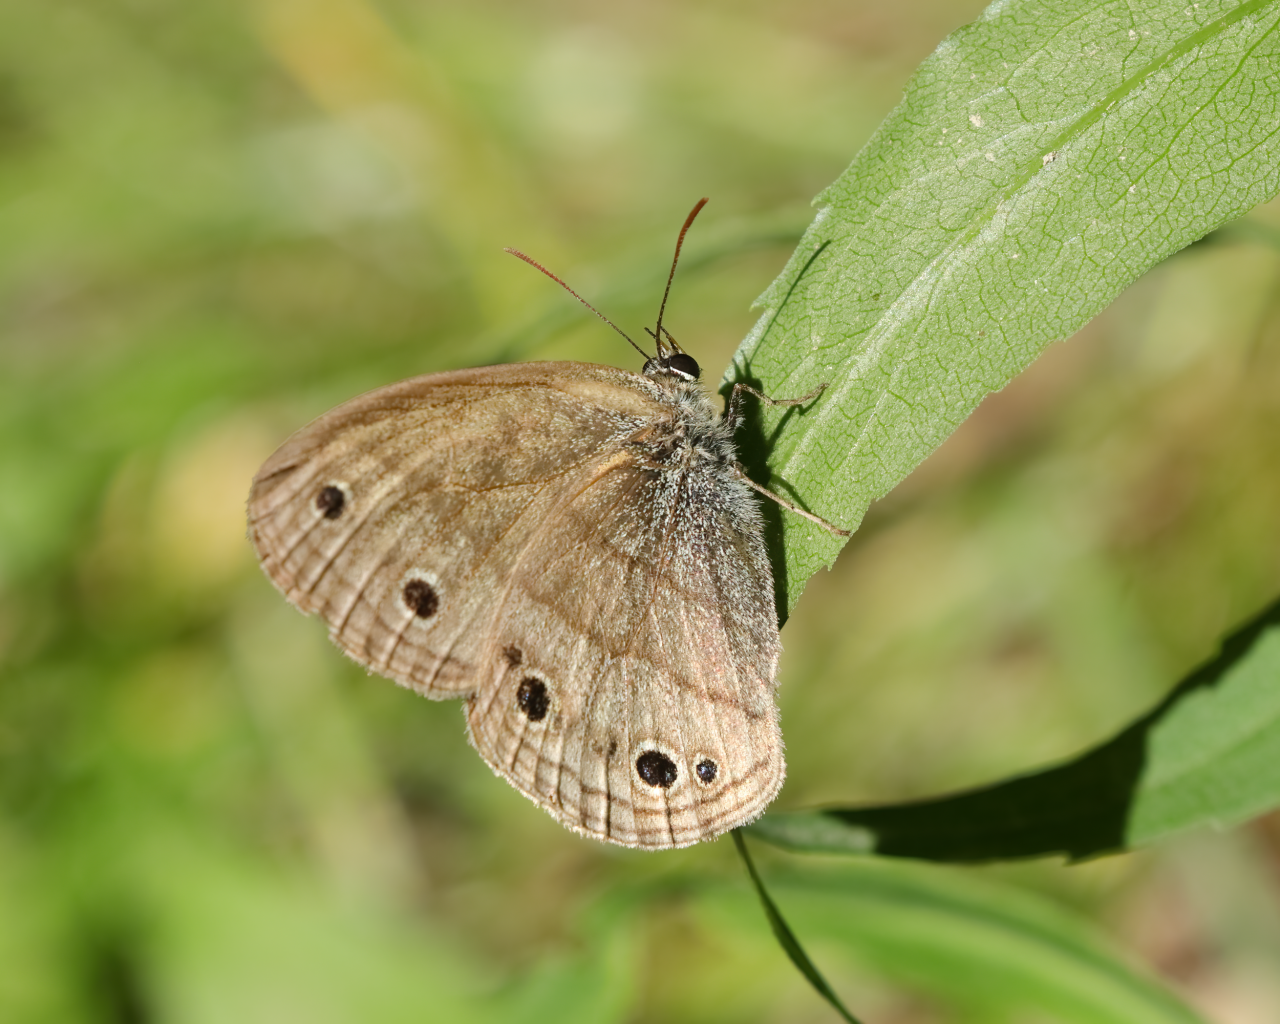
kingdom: Animalia
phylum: Arthropoda
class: Insecta
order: Lepidoptera
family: Nymphalidae
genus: Euptychia
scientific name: Euptychia cymela
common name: Little Wood Satyr
